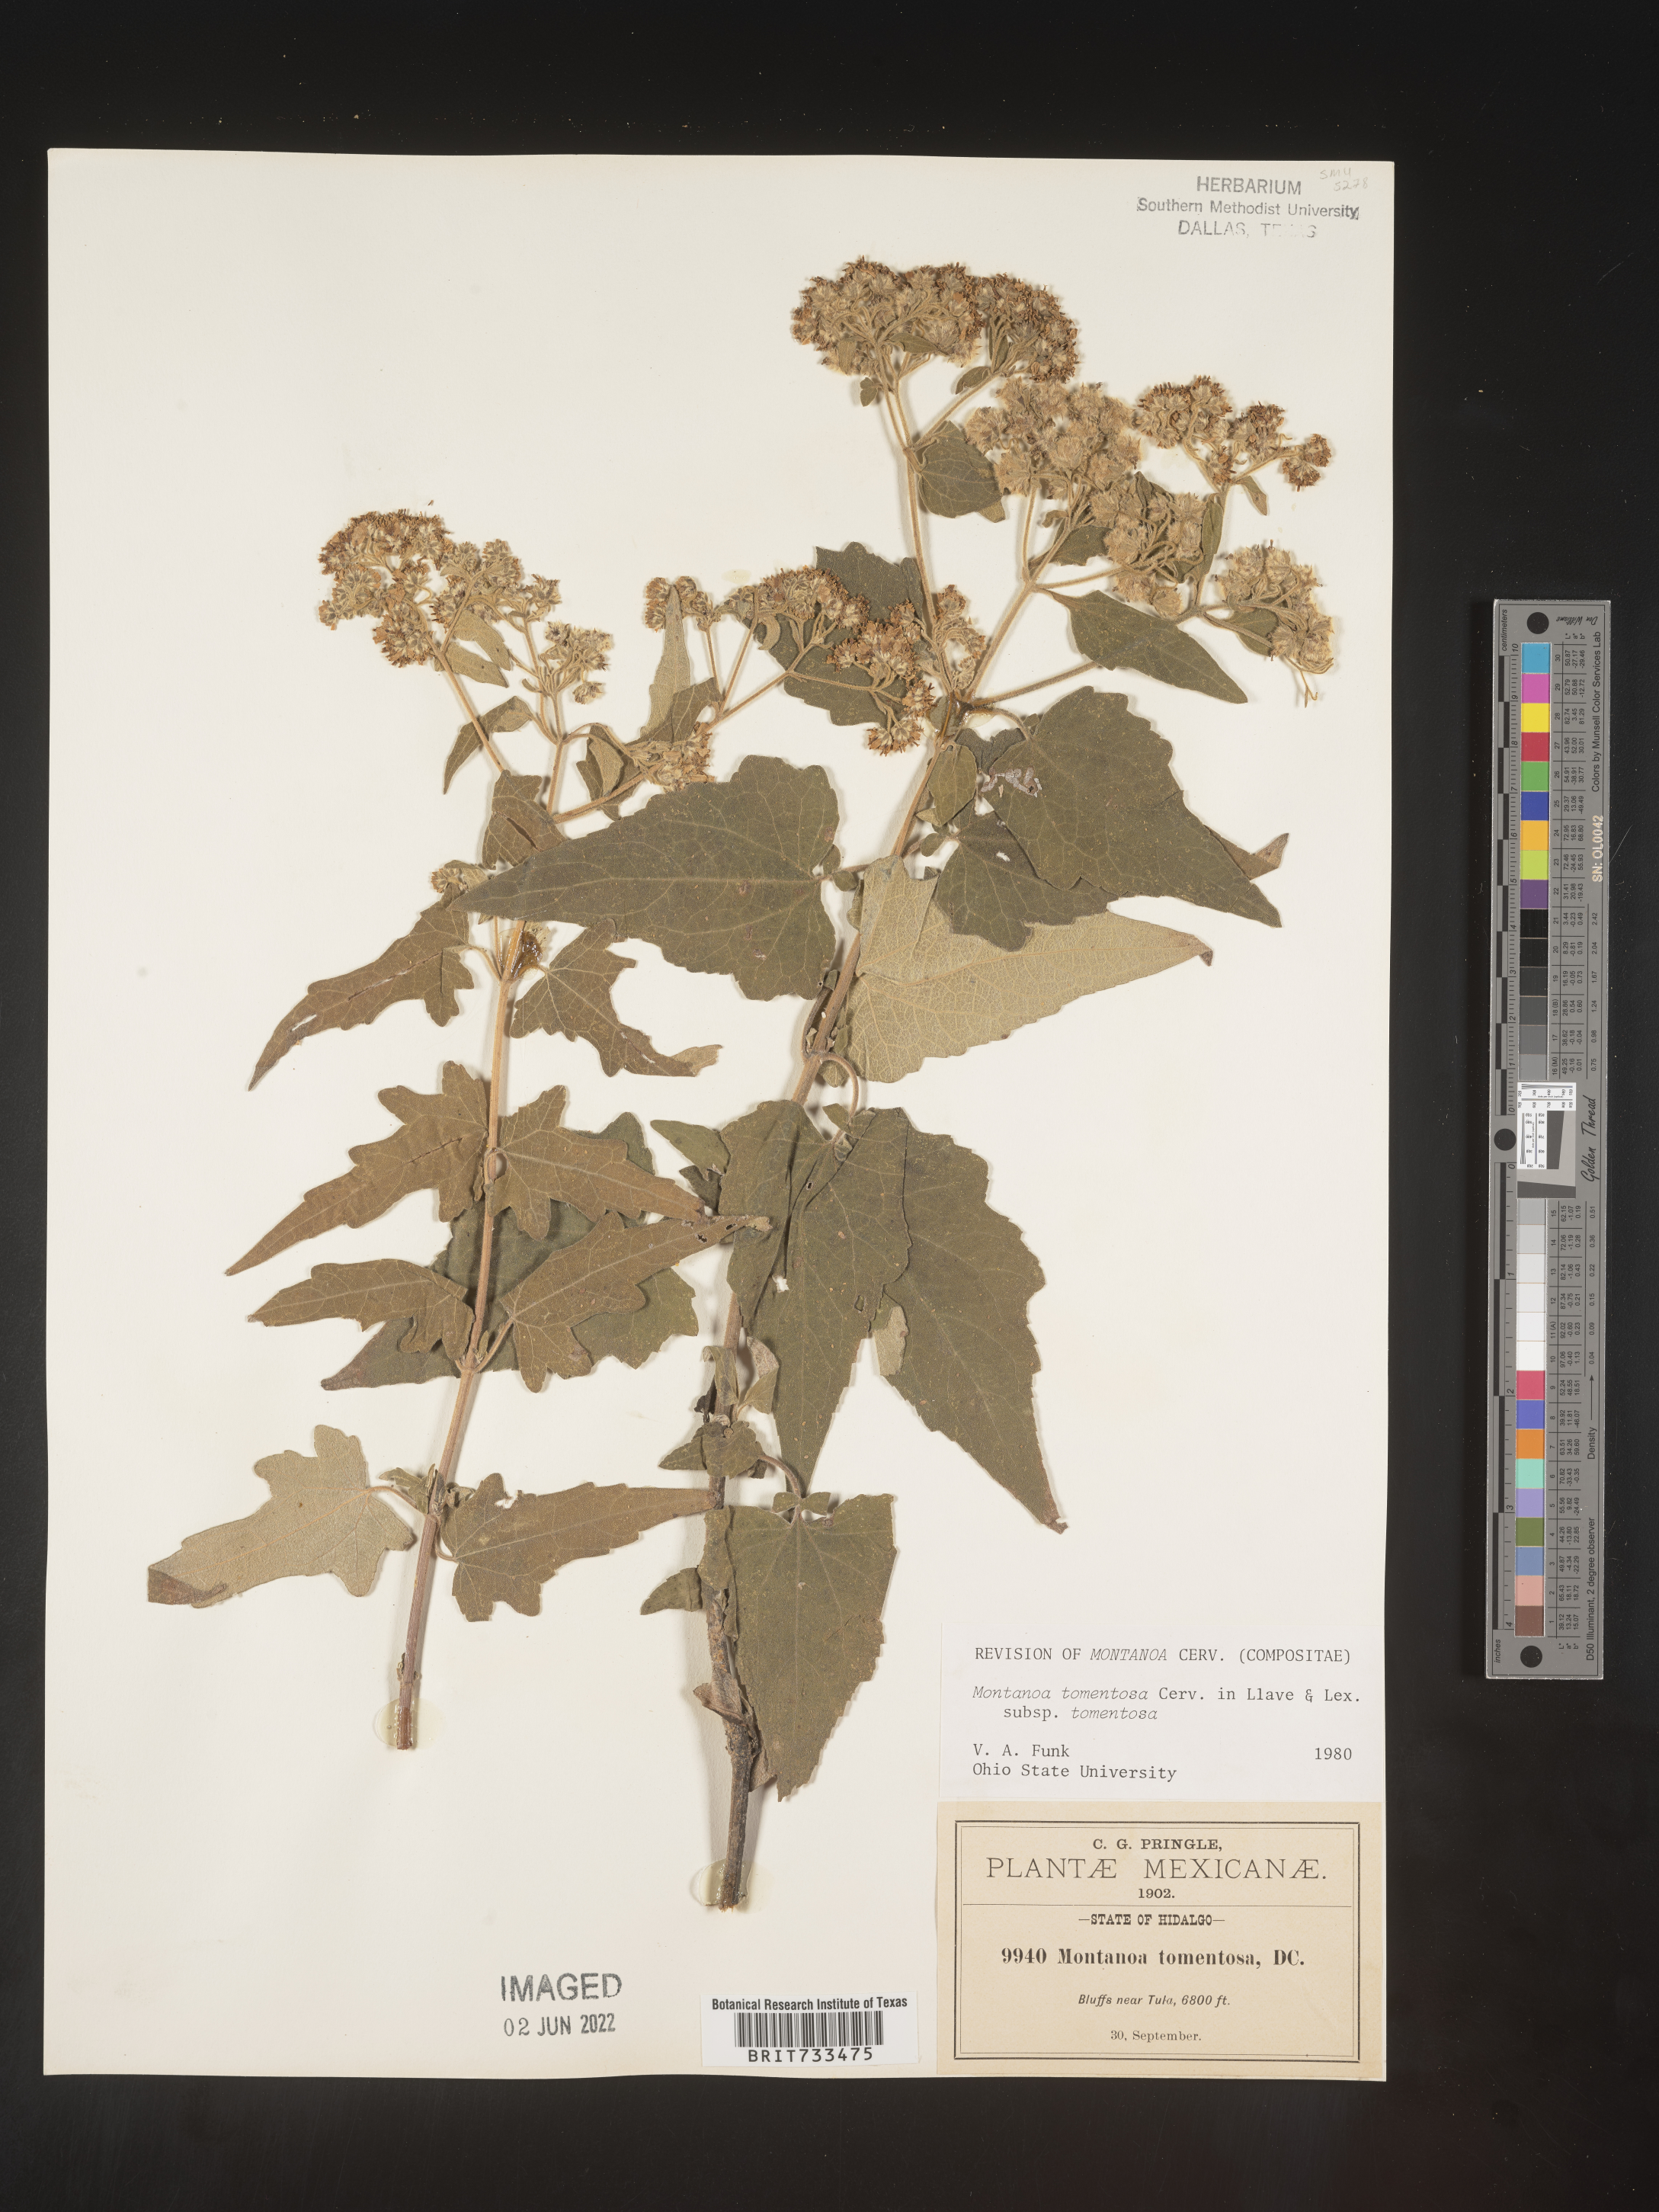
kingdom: Plantae
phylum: Tracheophyta
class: Magnoliopsida
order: Asterales
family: Asteraceae
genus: Montanoa
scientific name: Montanoa
